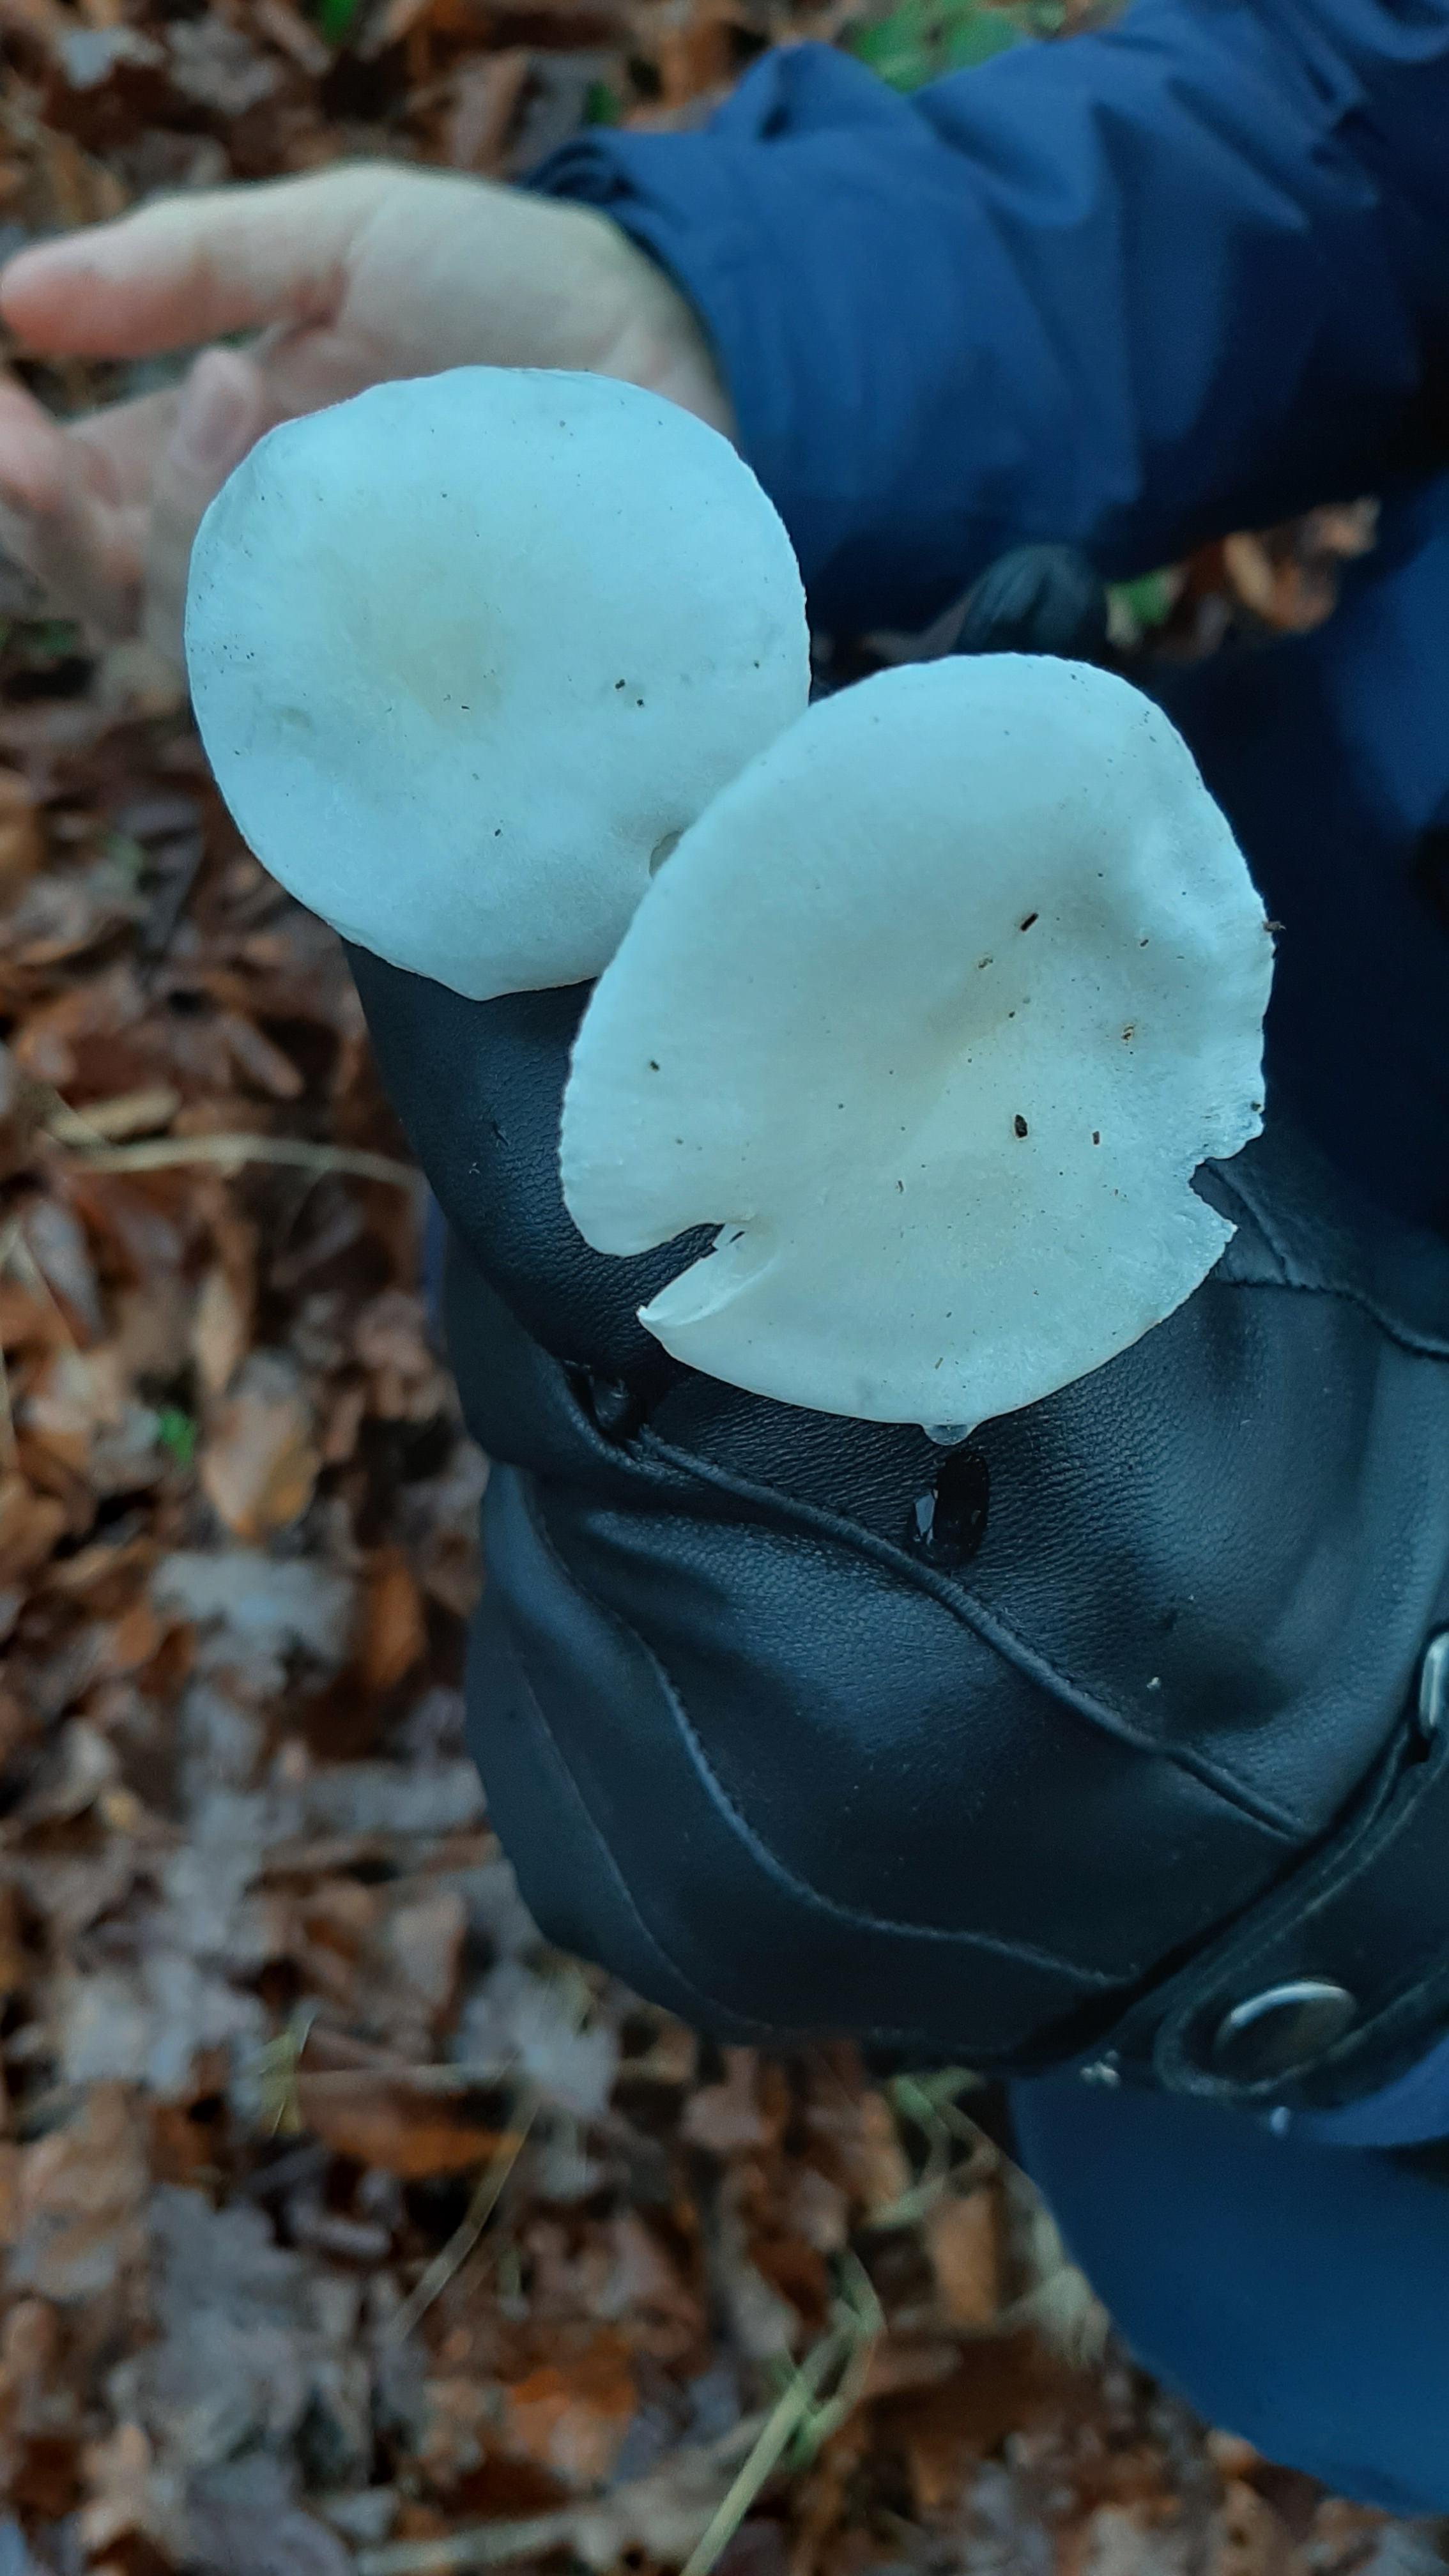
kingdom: Fungi
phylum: Basidiomycota
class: Agaricomycetes
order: Agaricales
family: Hygrophoraceae
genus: Hygrophorus
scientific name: Hygrophorus eburneus
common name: elfenbens-sneglehat
